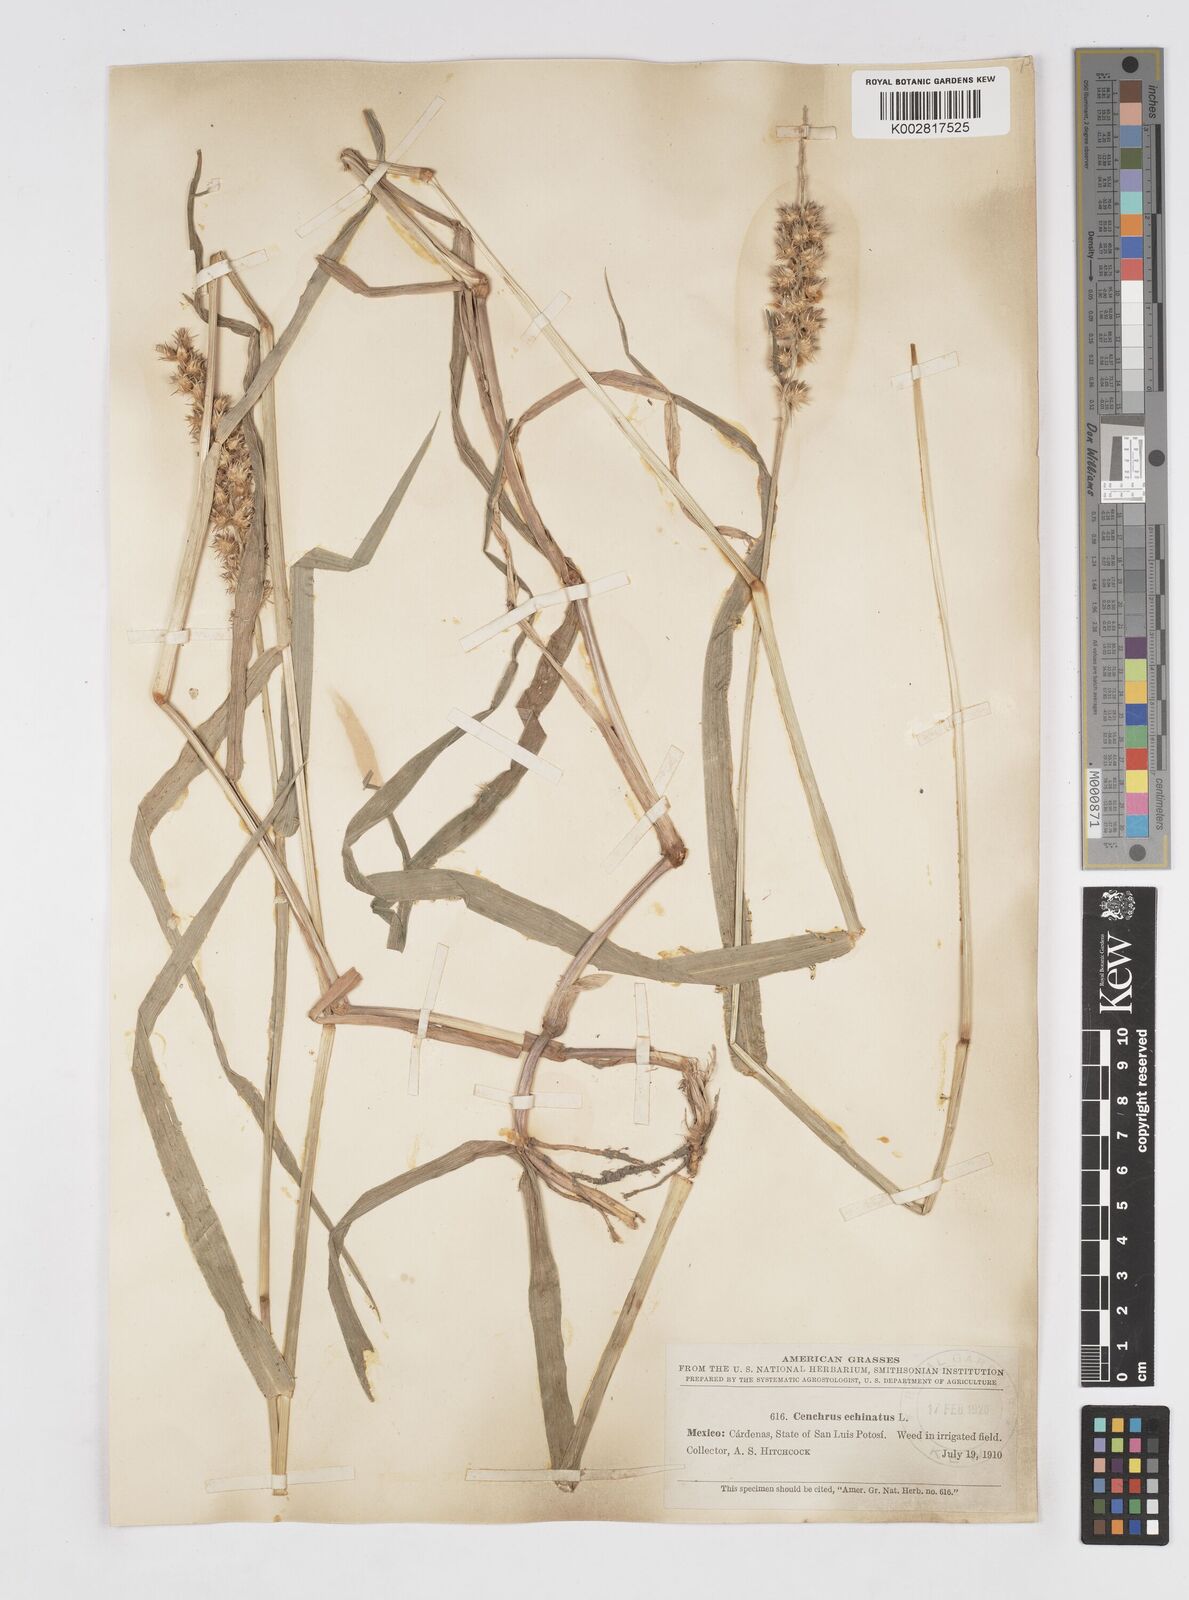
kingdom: Plantae
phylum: Tracheophyta
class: Liliopsida
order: Poales
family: Poaceae
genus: Cenchrus
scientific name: Cenchrus
